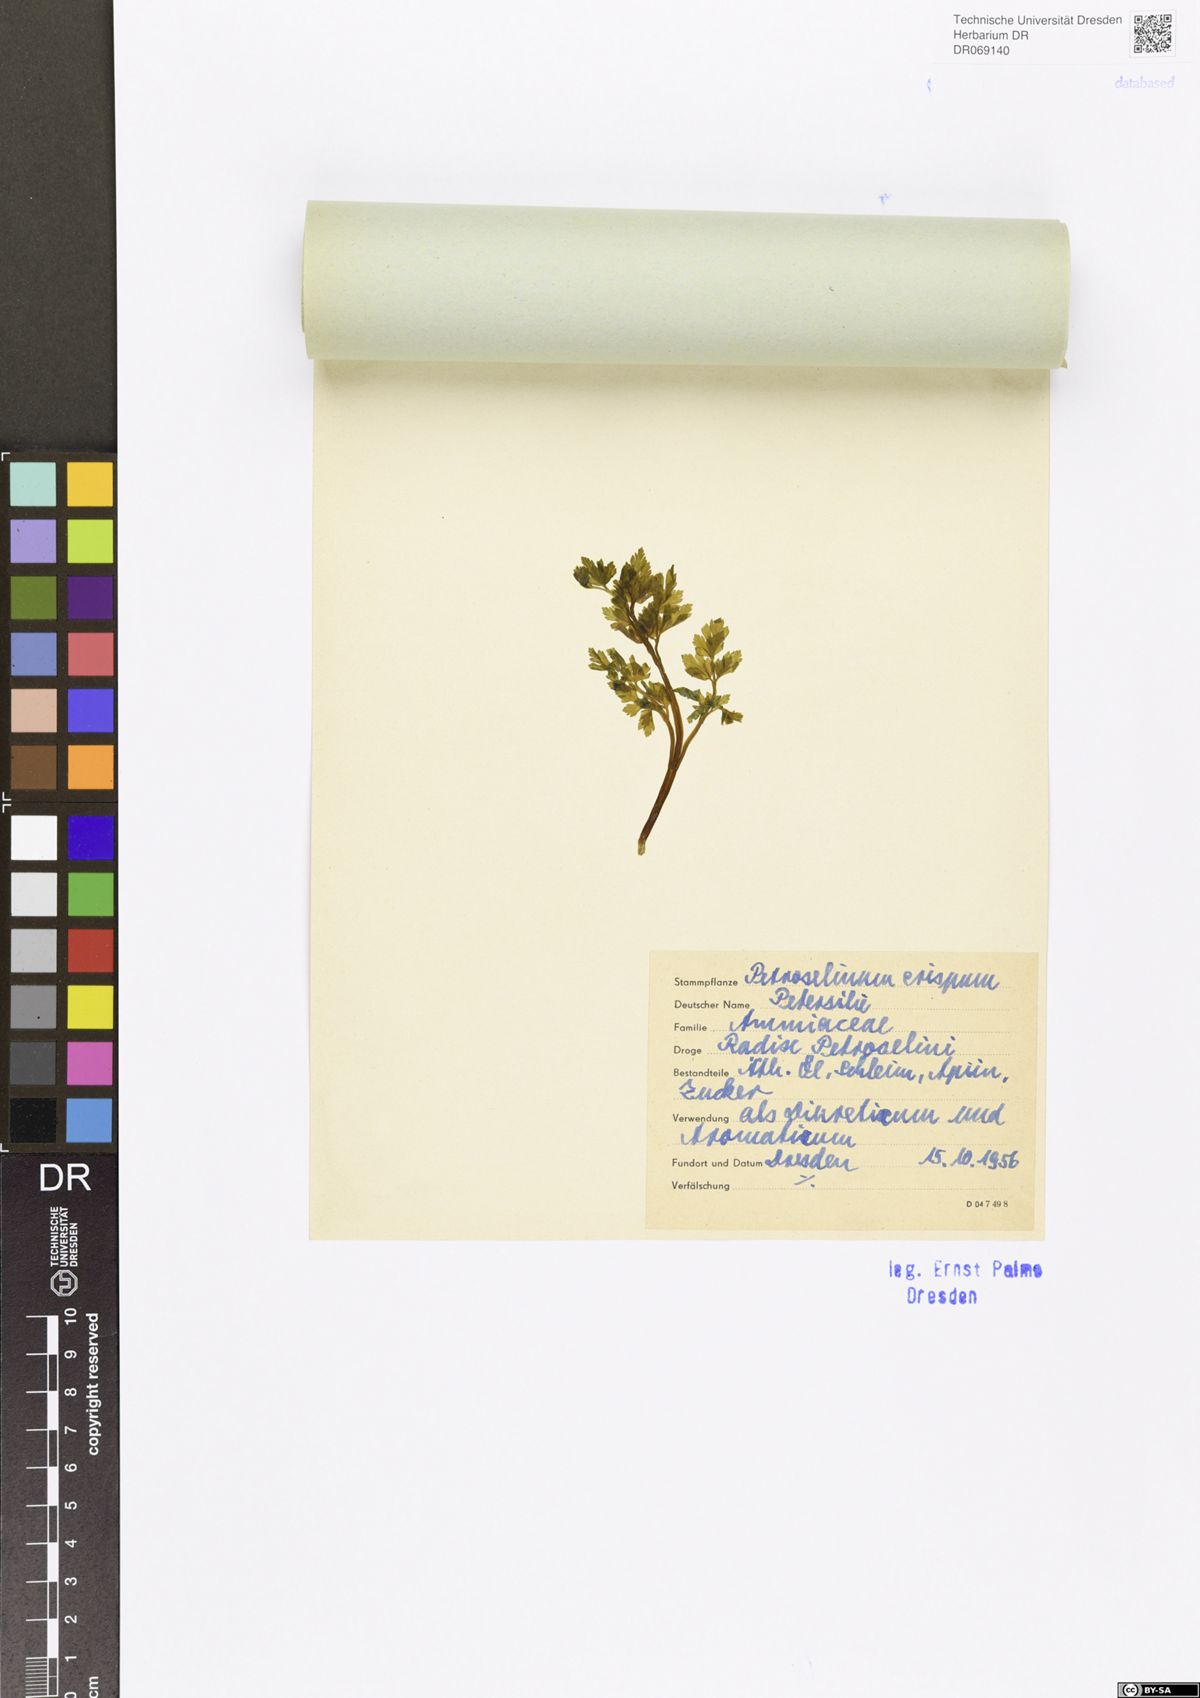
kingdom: Plantae
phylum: Tracheophyta
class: Magnoliopsida
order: Apiales
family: Apiaceae
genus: Petroselinum
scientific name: Petroselinum crispum
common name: Parsley
